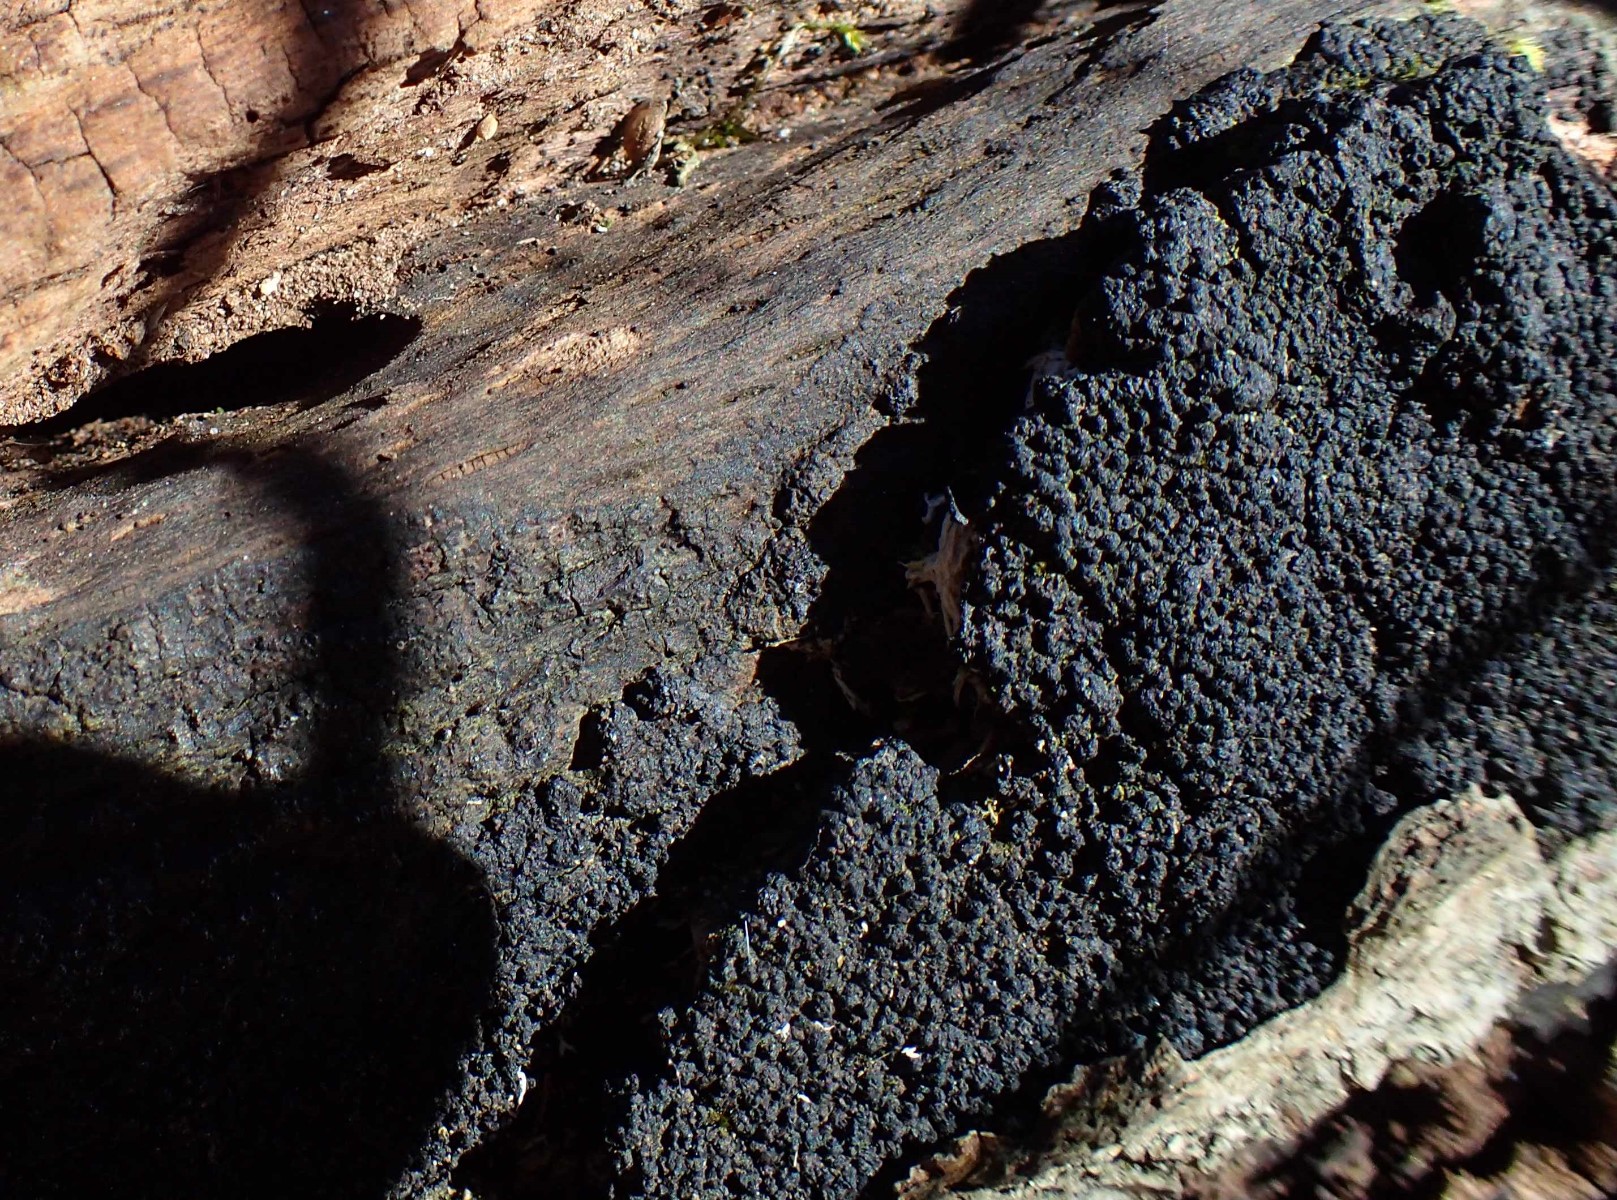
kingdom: Fungi
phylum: Ascomycota
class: Sordariomycetes
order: Xylariales
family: Diatrypaceae
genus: Eutypa
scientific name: Eutypa spinosa
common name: grov kulskorpe
